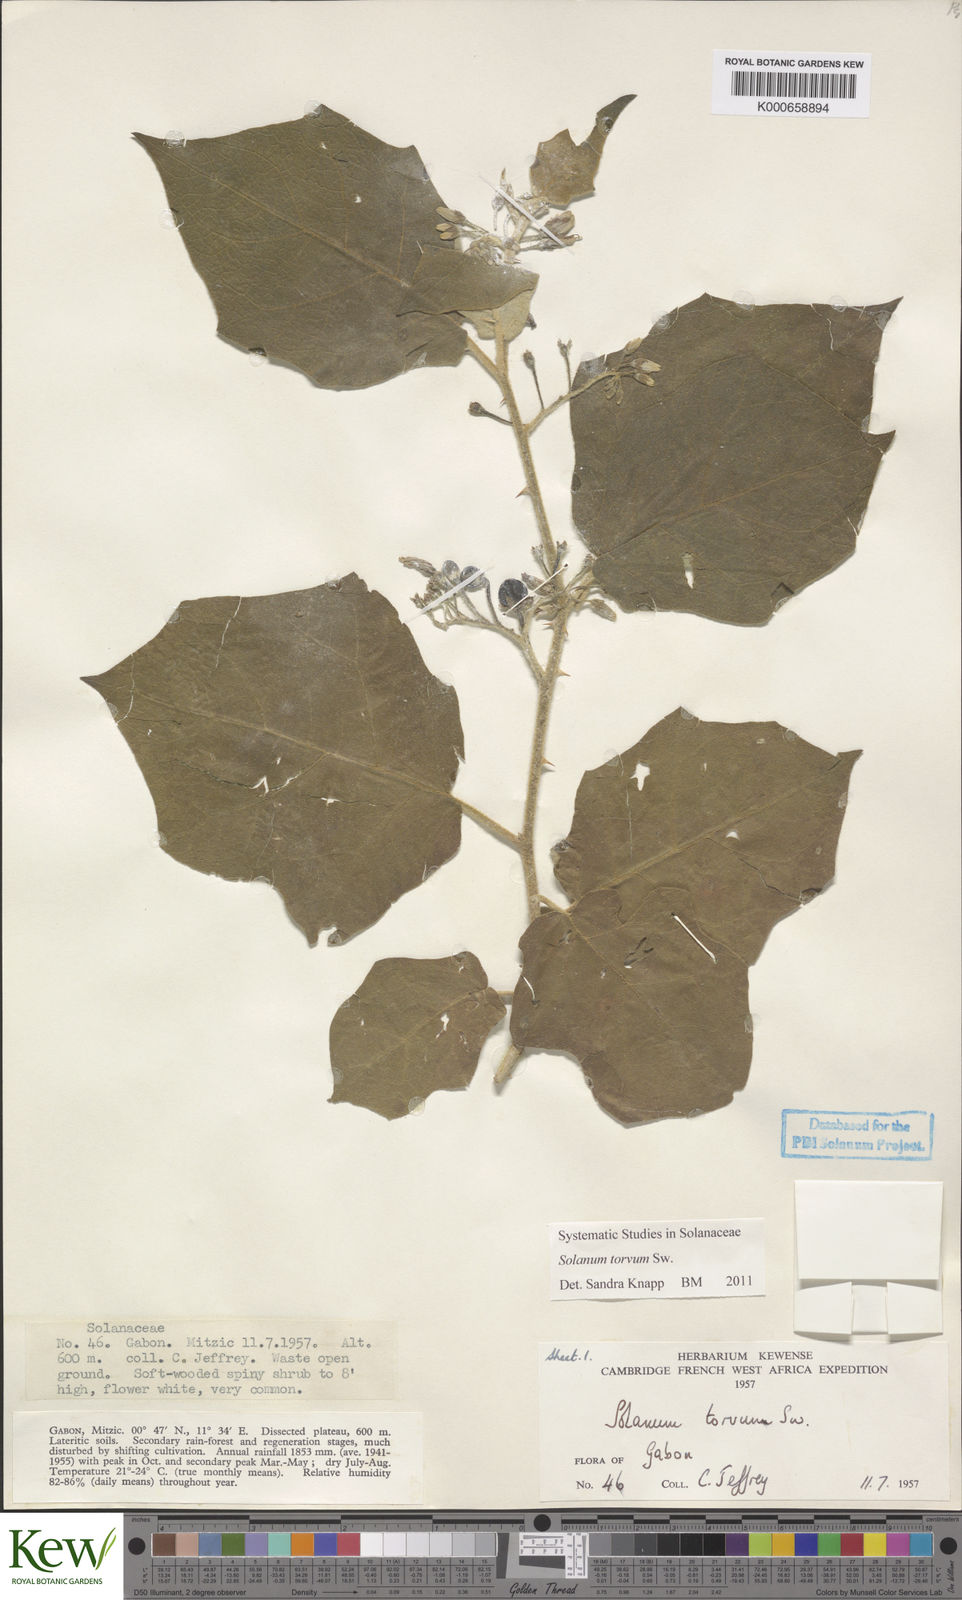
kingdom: Plantae
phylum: Tracheophyta
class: Magnoliopsida
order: Solanales
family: Solanaceae
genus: Solanum
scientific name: Solanum torvum
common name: Turkey berry
